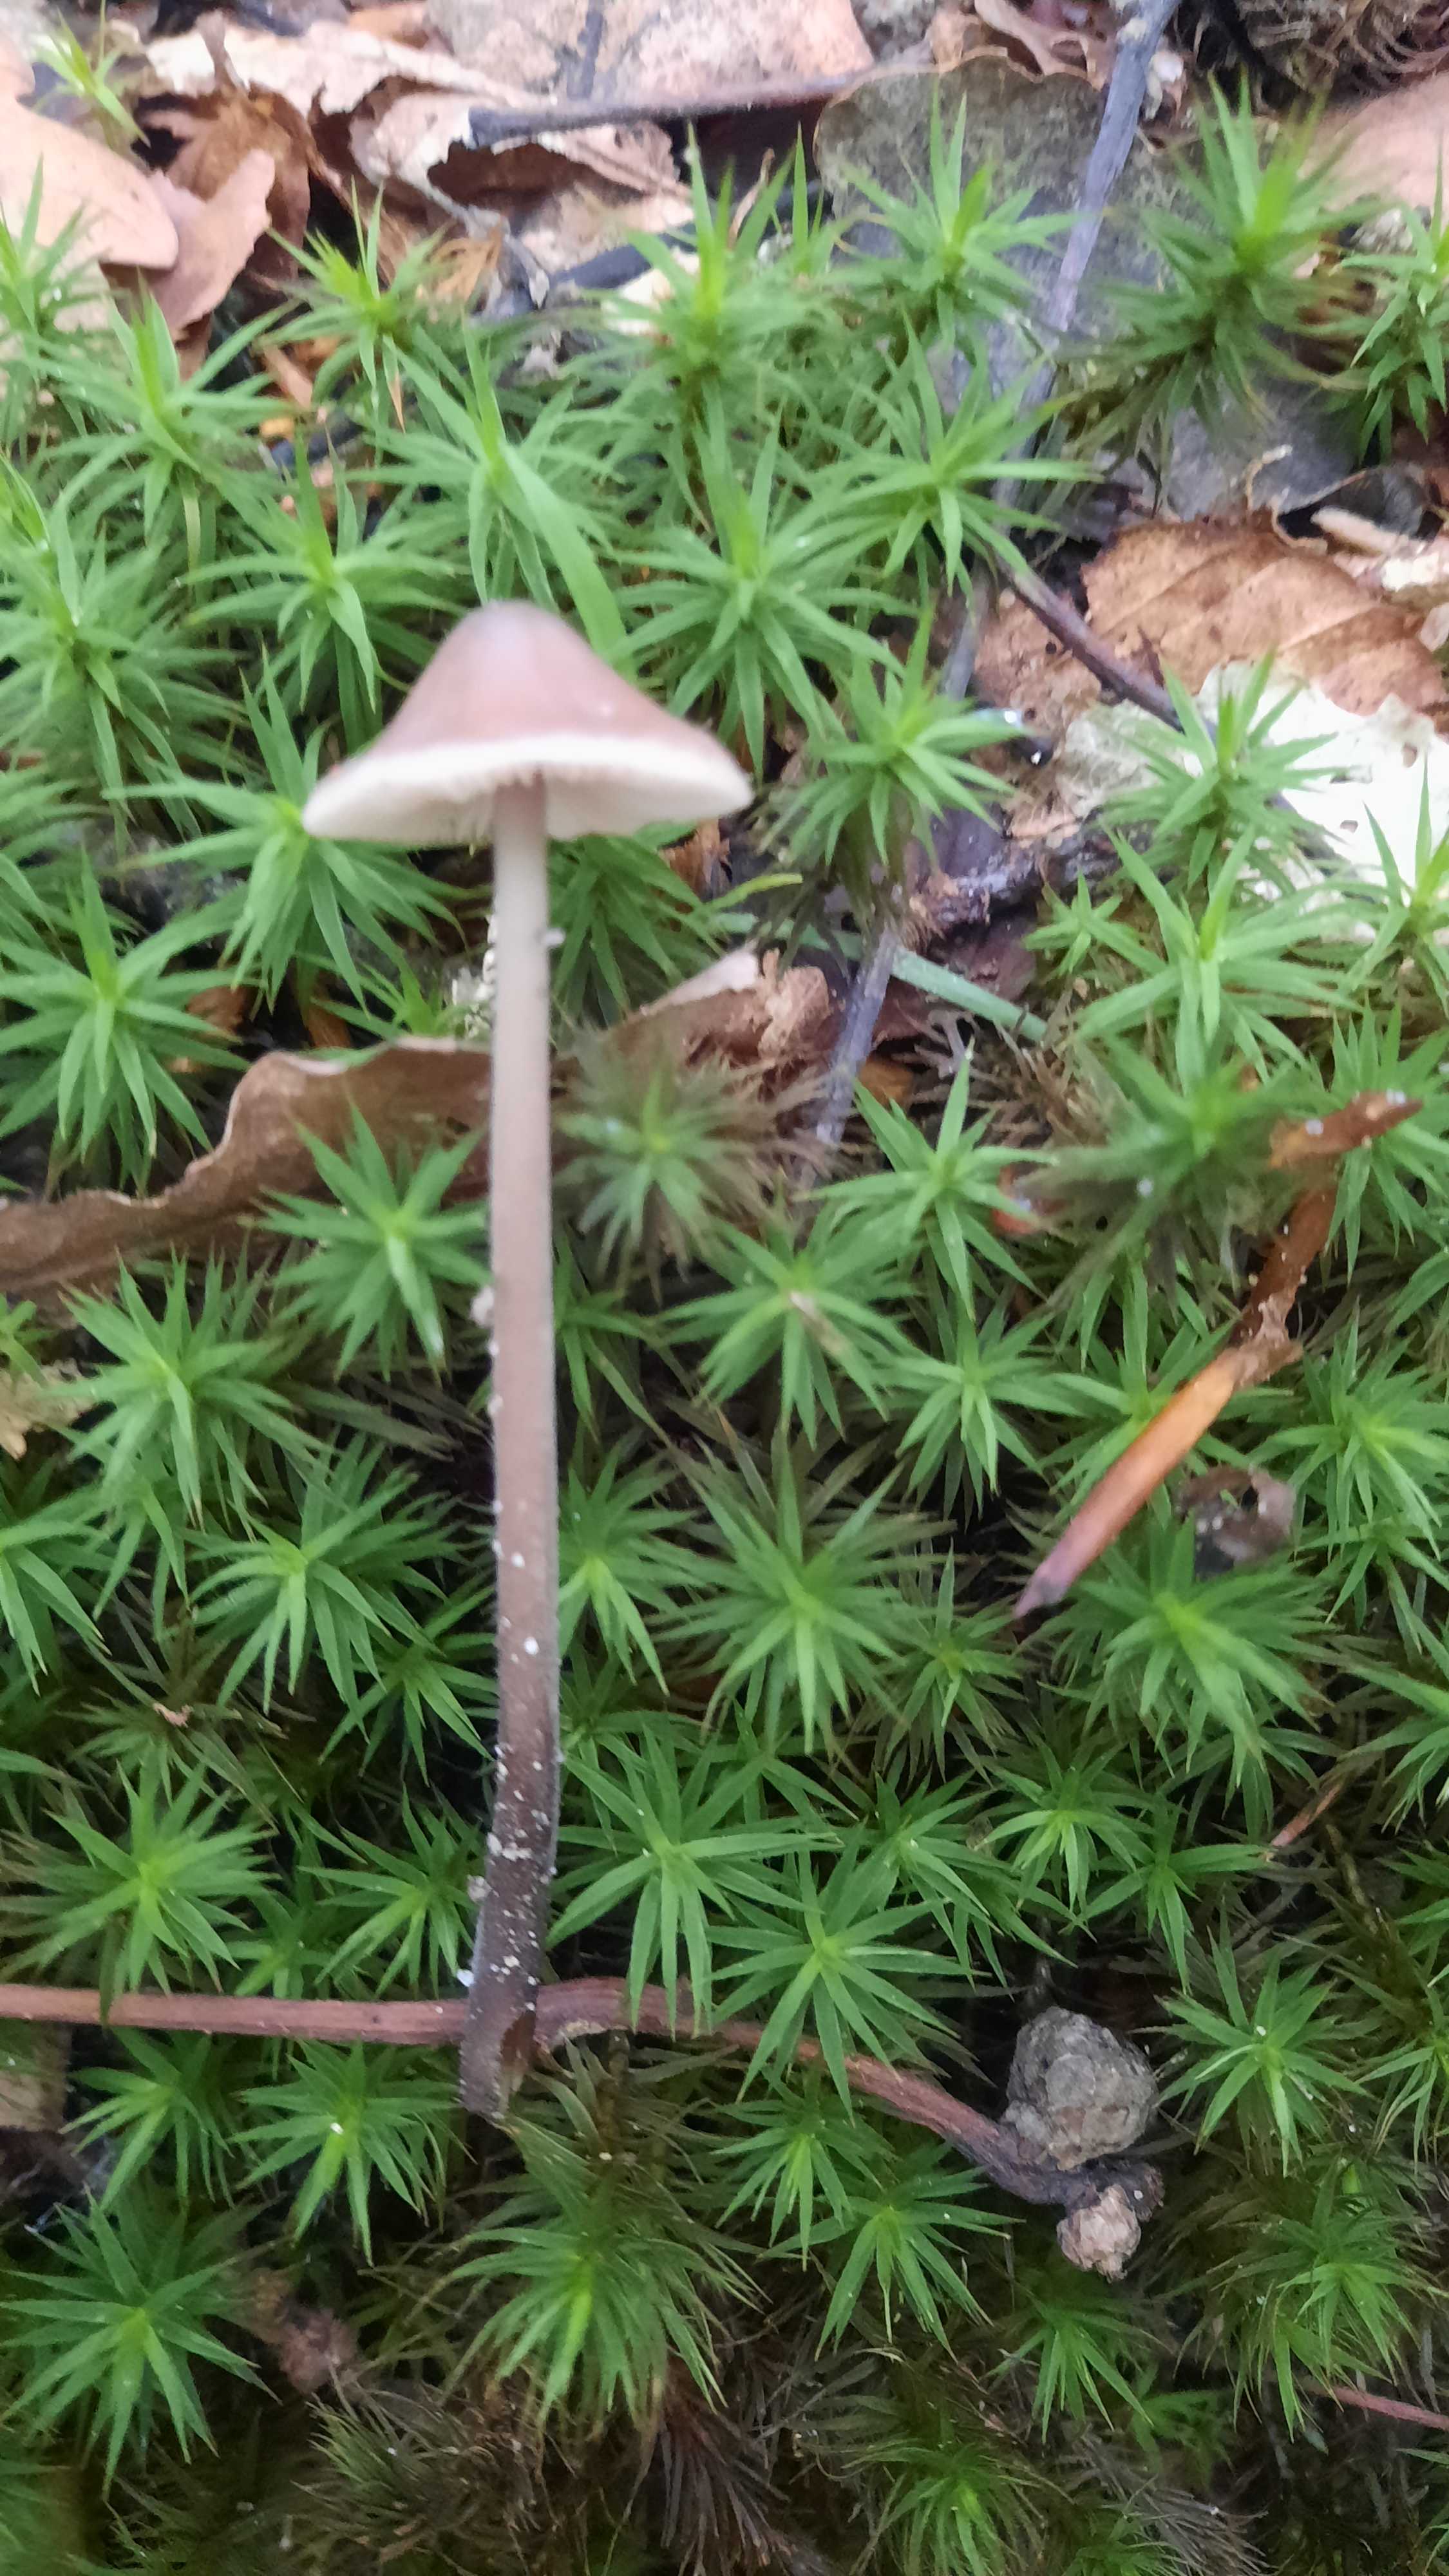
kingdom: Fungi
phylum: Basidiomycota
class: Agaricomycetes
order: Agaricales
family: Omphalotaceae
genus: Mycetinis
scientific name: Mycetinis alliaceus
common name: stor løghat
